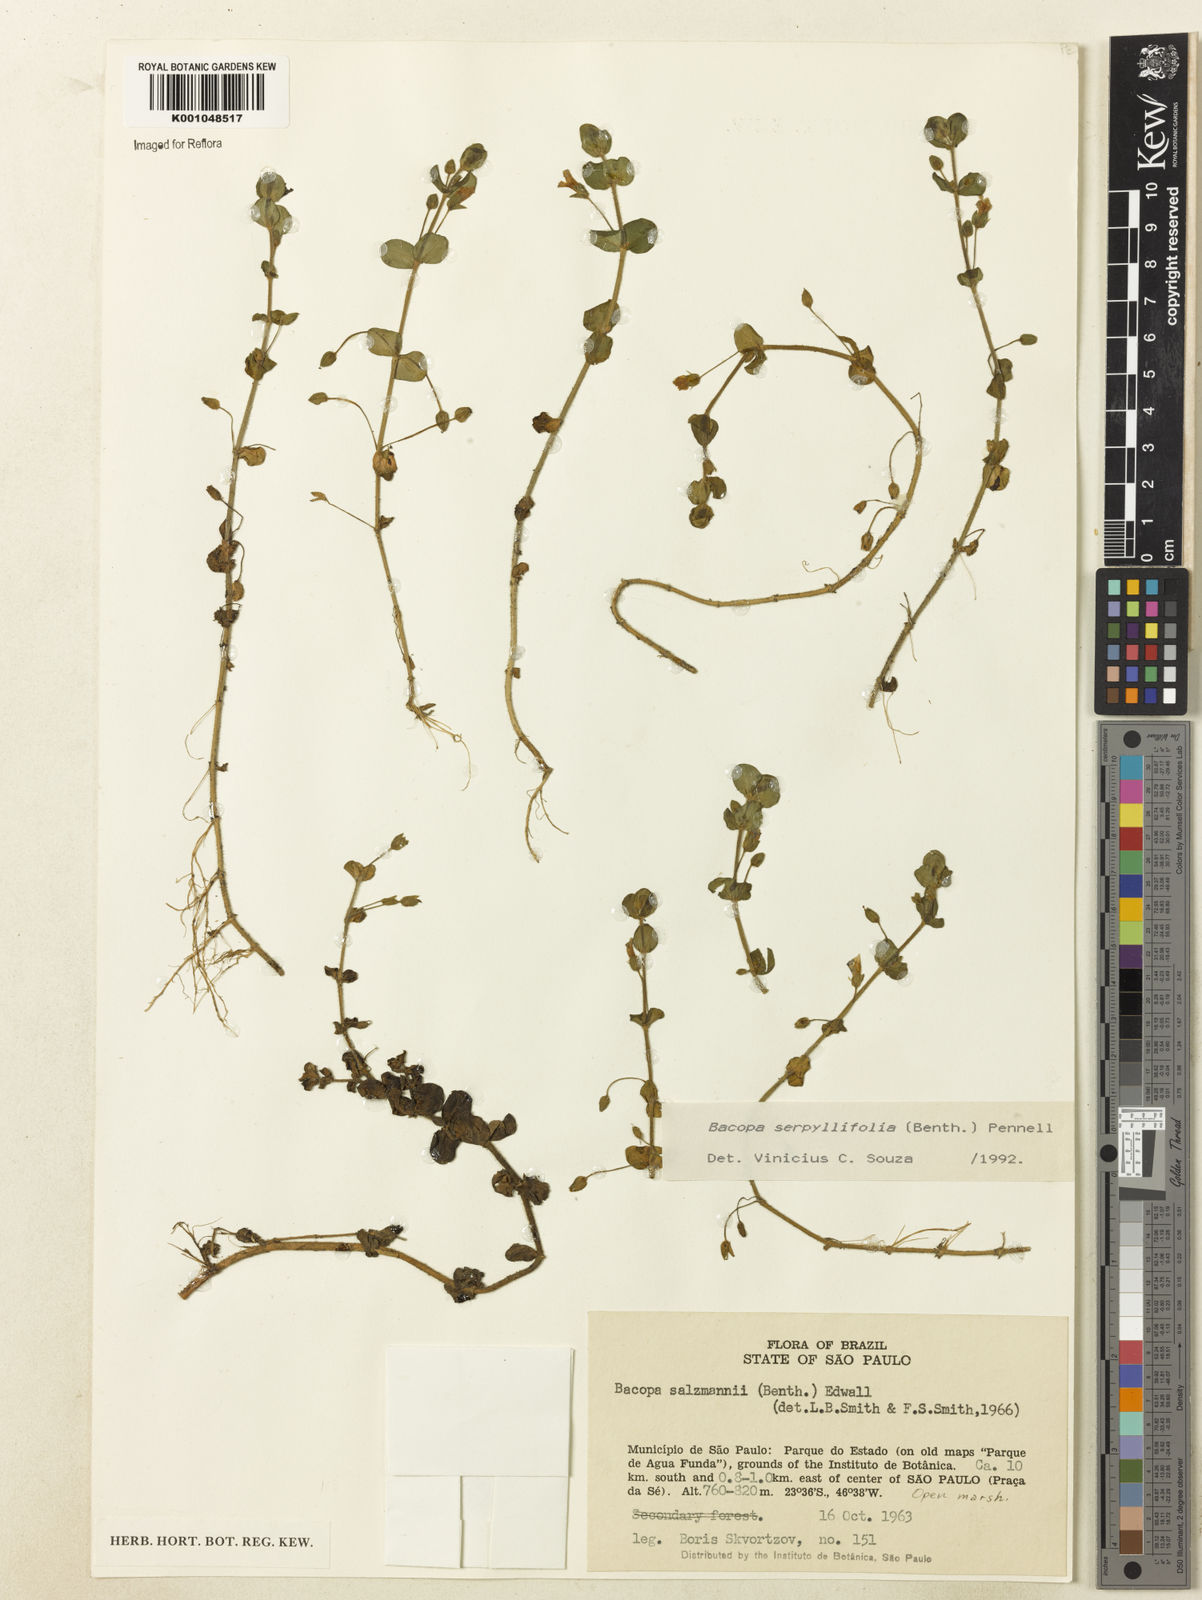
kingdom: Plantae
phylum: Tracheophyta
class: Magnoliopsida
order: Lamiales
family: Plantaginaceae
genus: Bacopa
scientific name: Bacopa serpyllifolia
